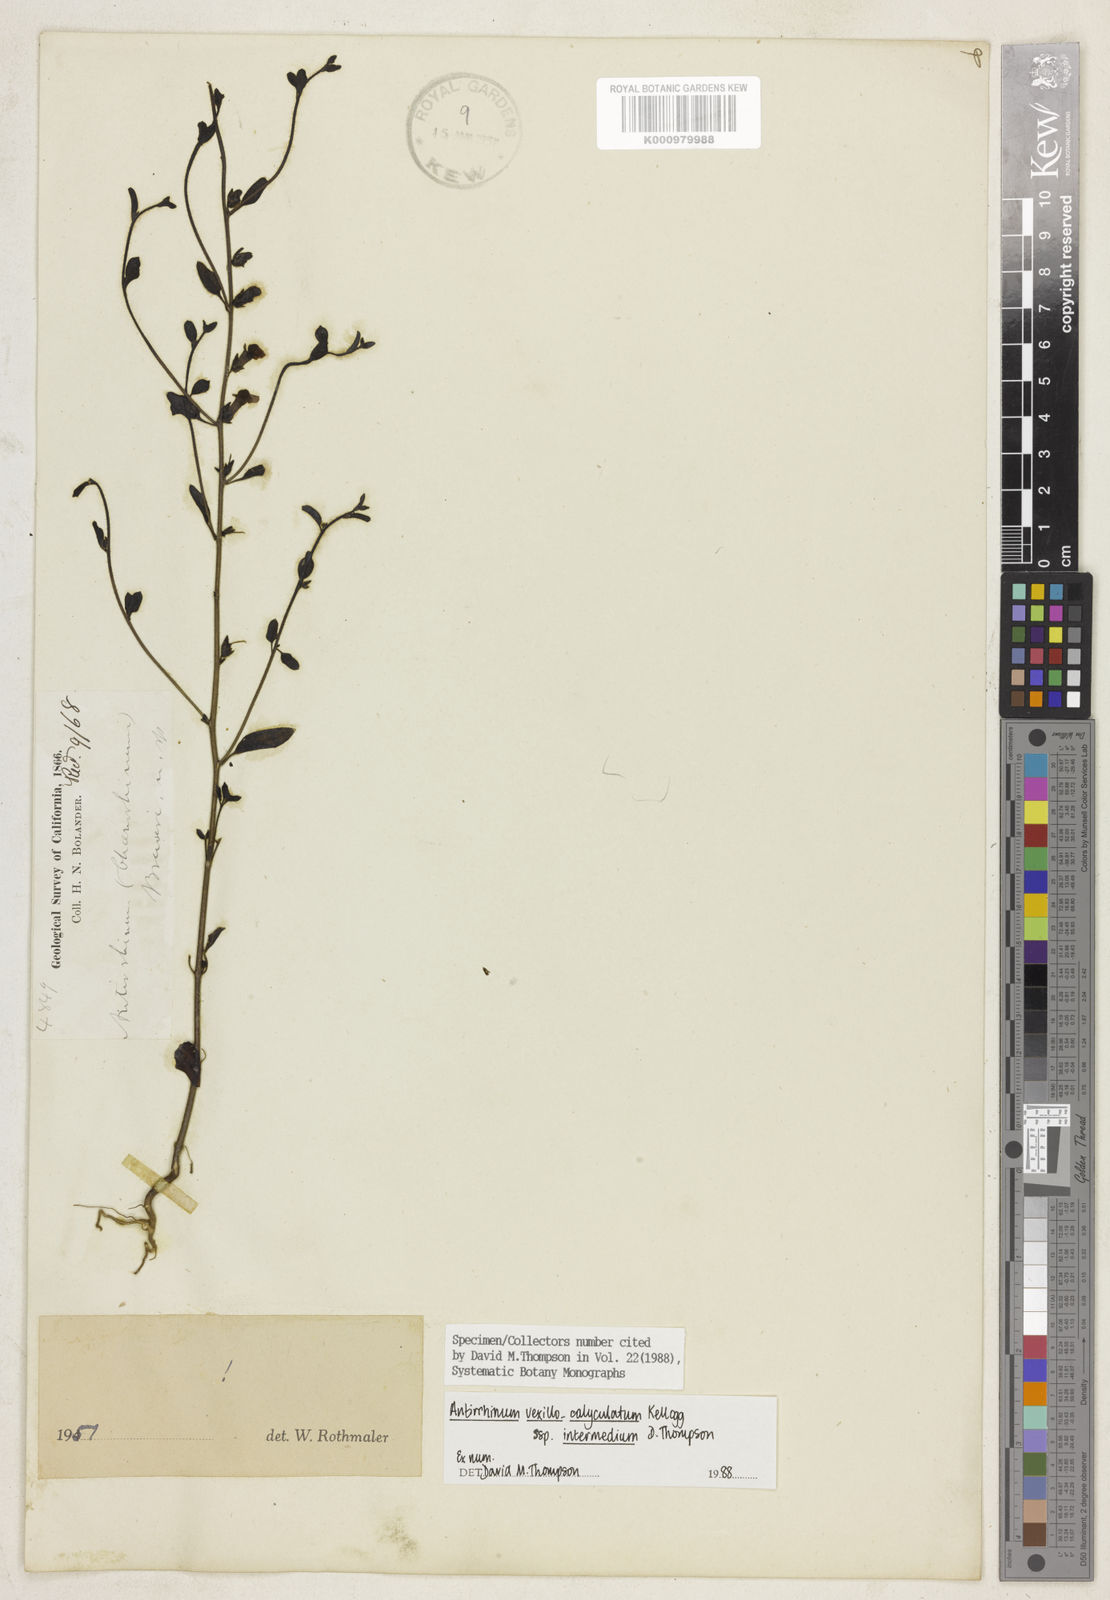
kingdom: Plantae
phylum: Tracheophyta
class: Magnoliopsida
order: Lamiales
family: Plantaginaceae
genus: Sairocarpus
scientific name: Sairocarpus vexillocalyculatus
